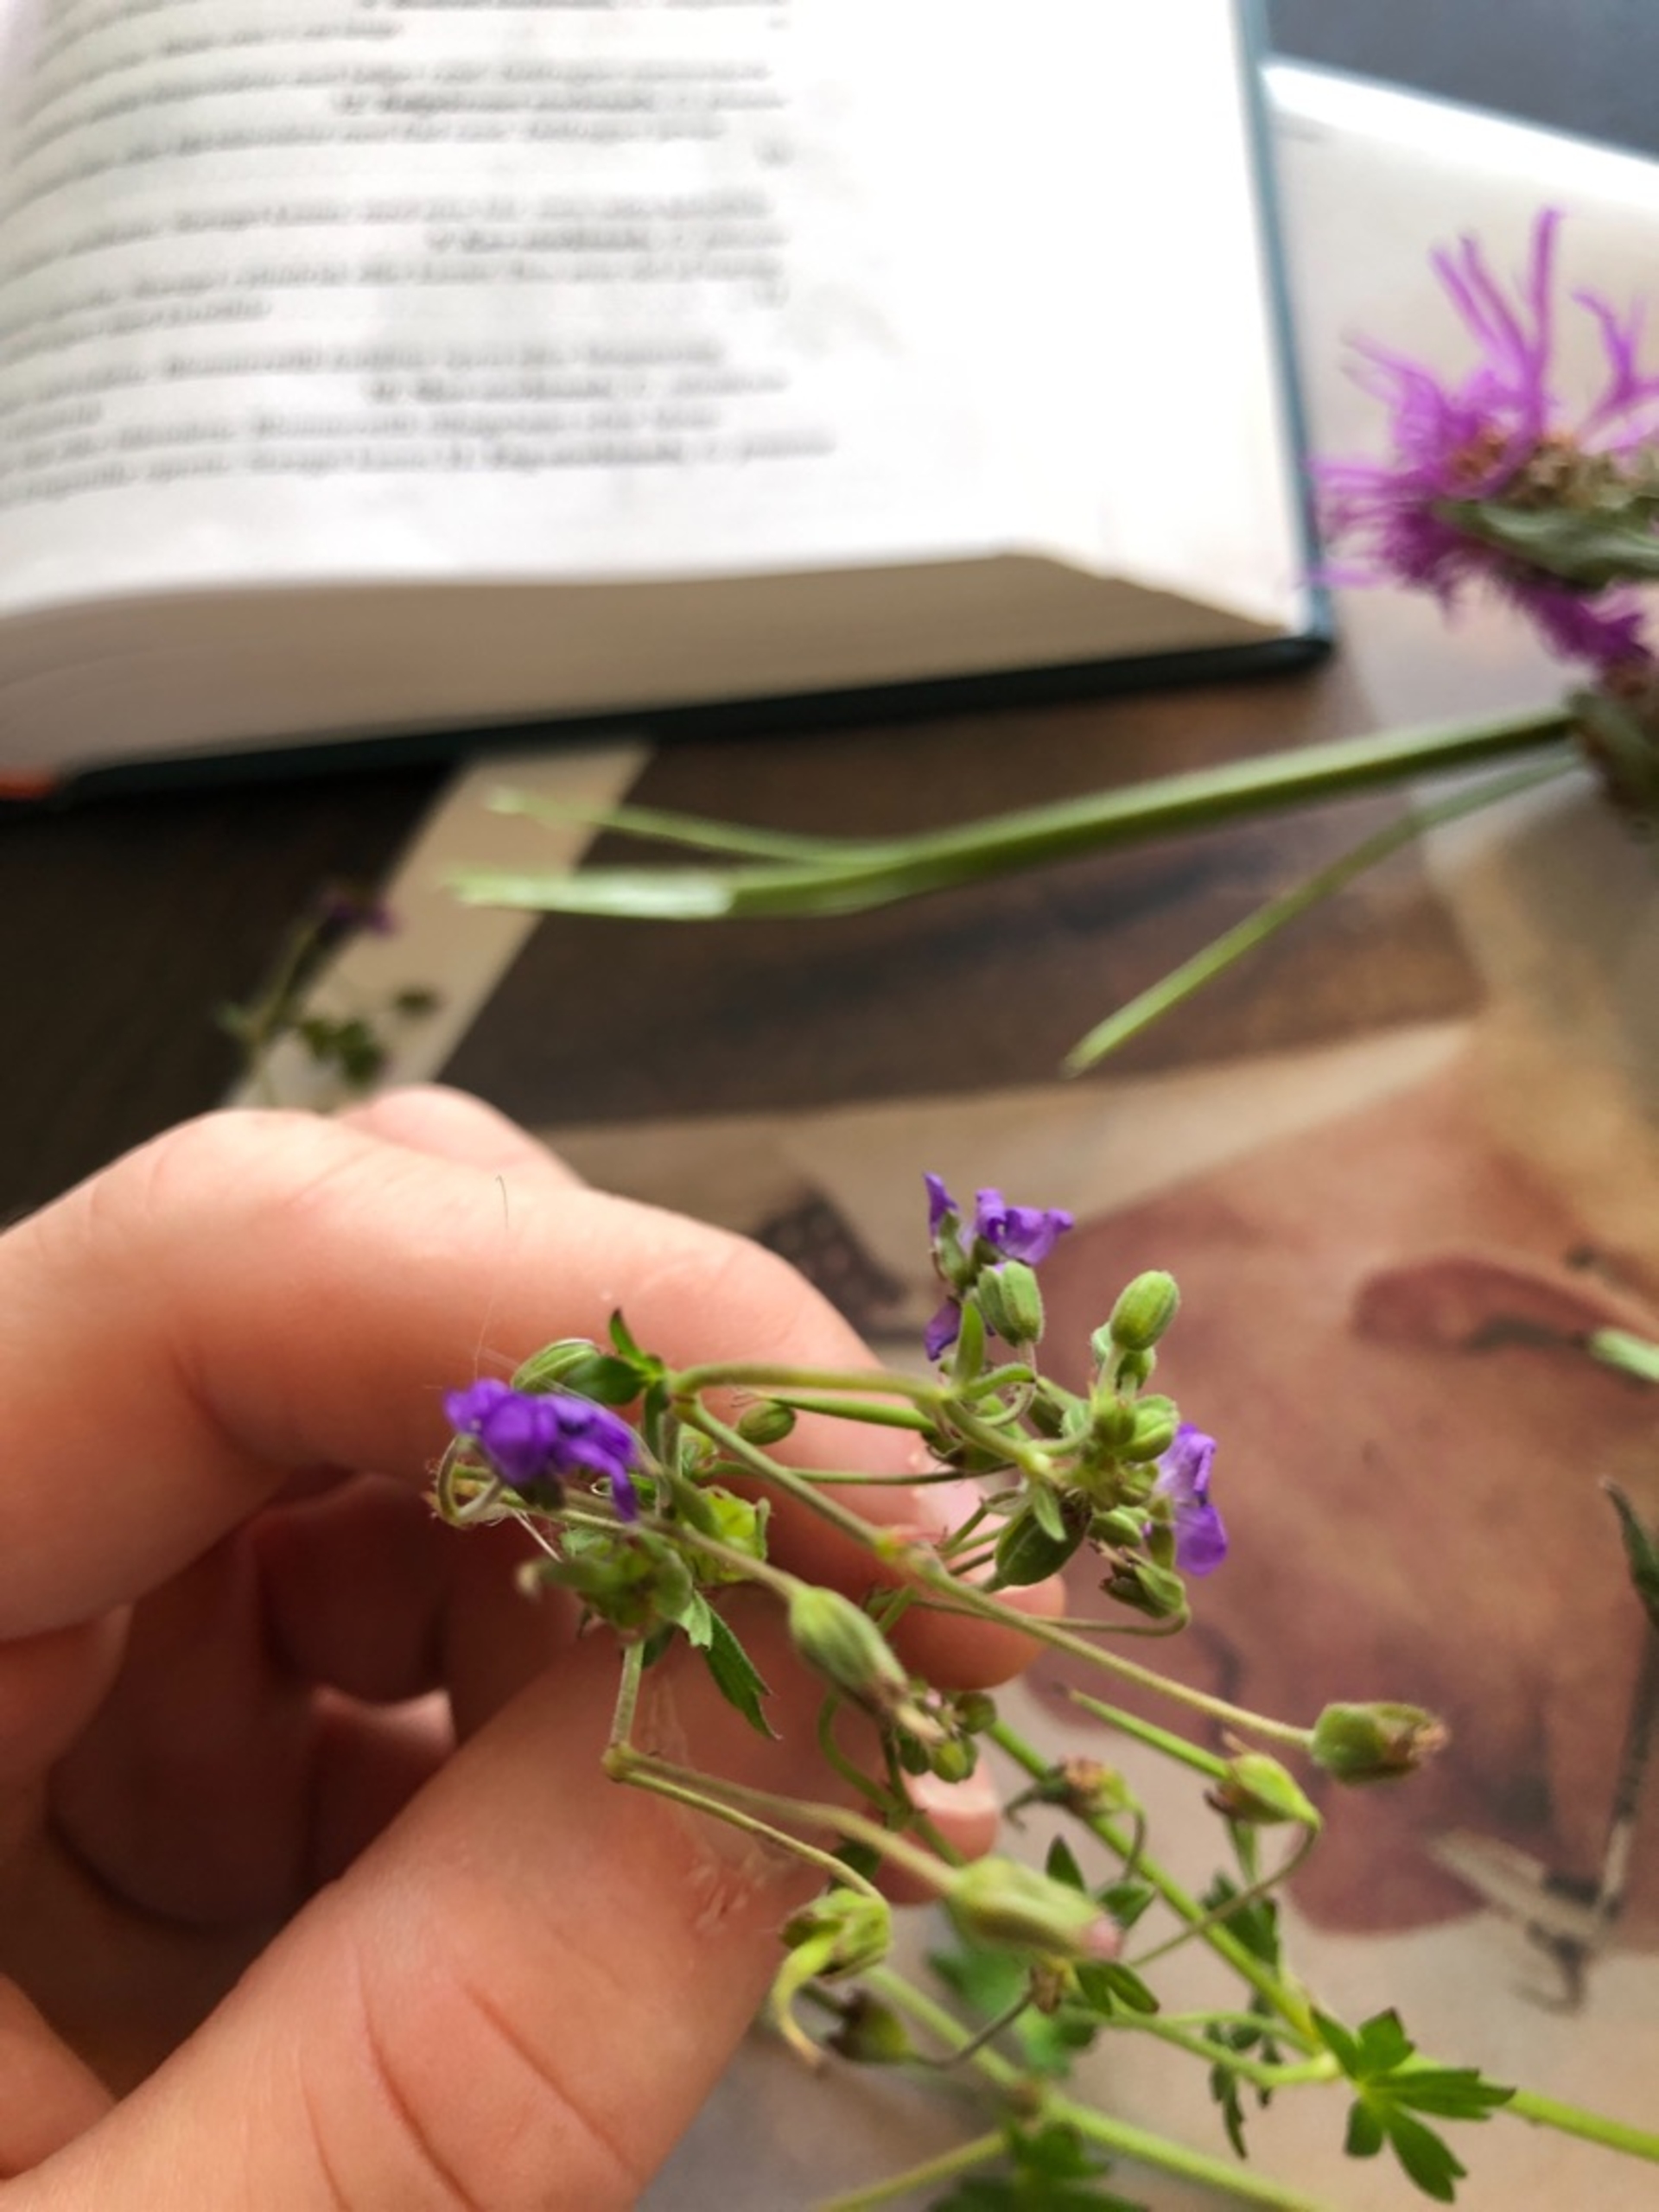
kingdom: Plantae
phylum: Tracheophyta
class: Magnoliopsida
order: Geraniales
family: Geraniaceae
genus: Geranium
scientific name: Geranium pyrenaicum
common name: Pyrenæisk storkenæb
